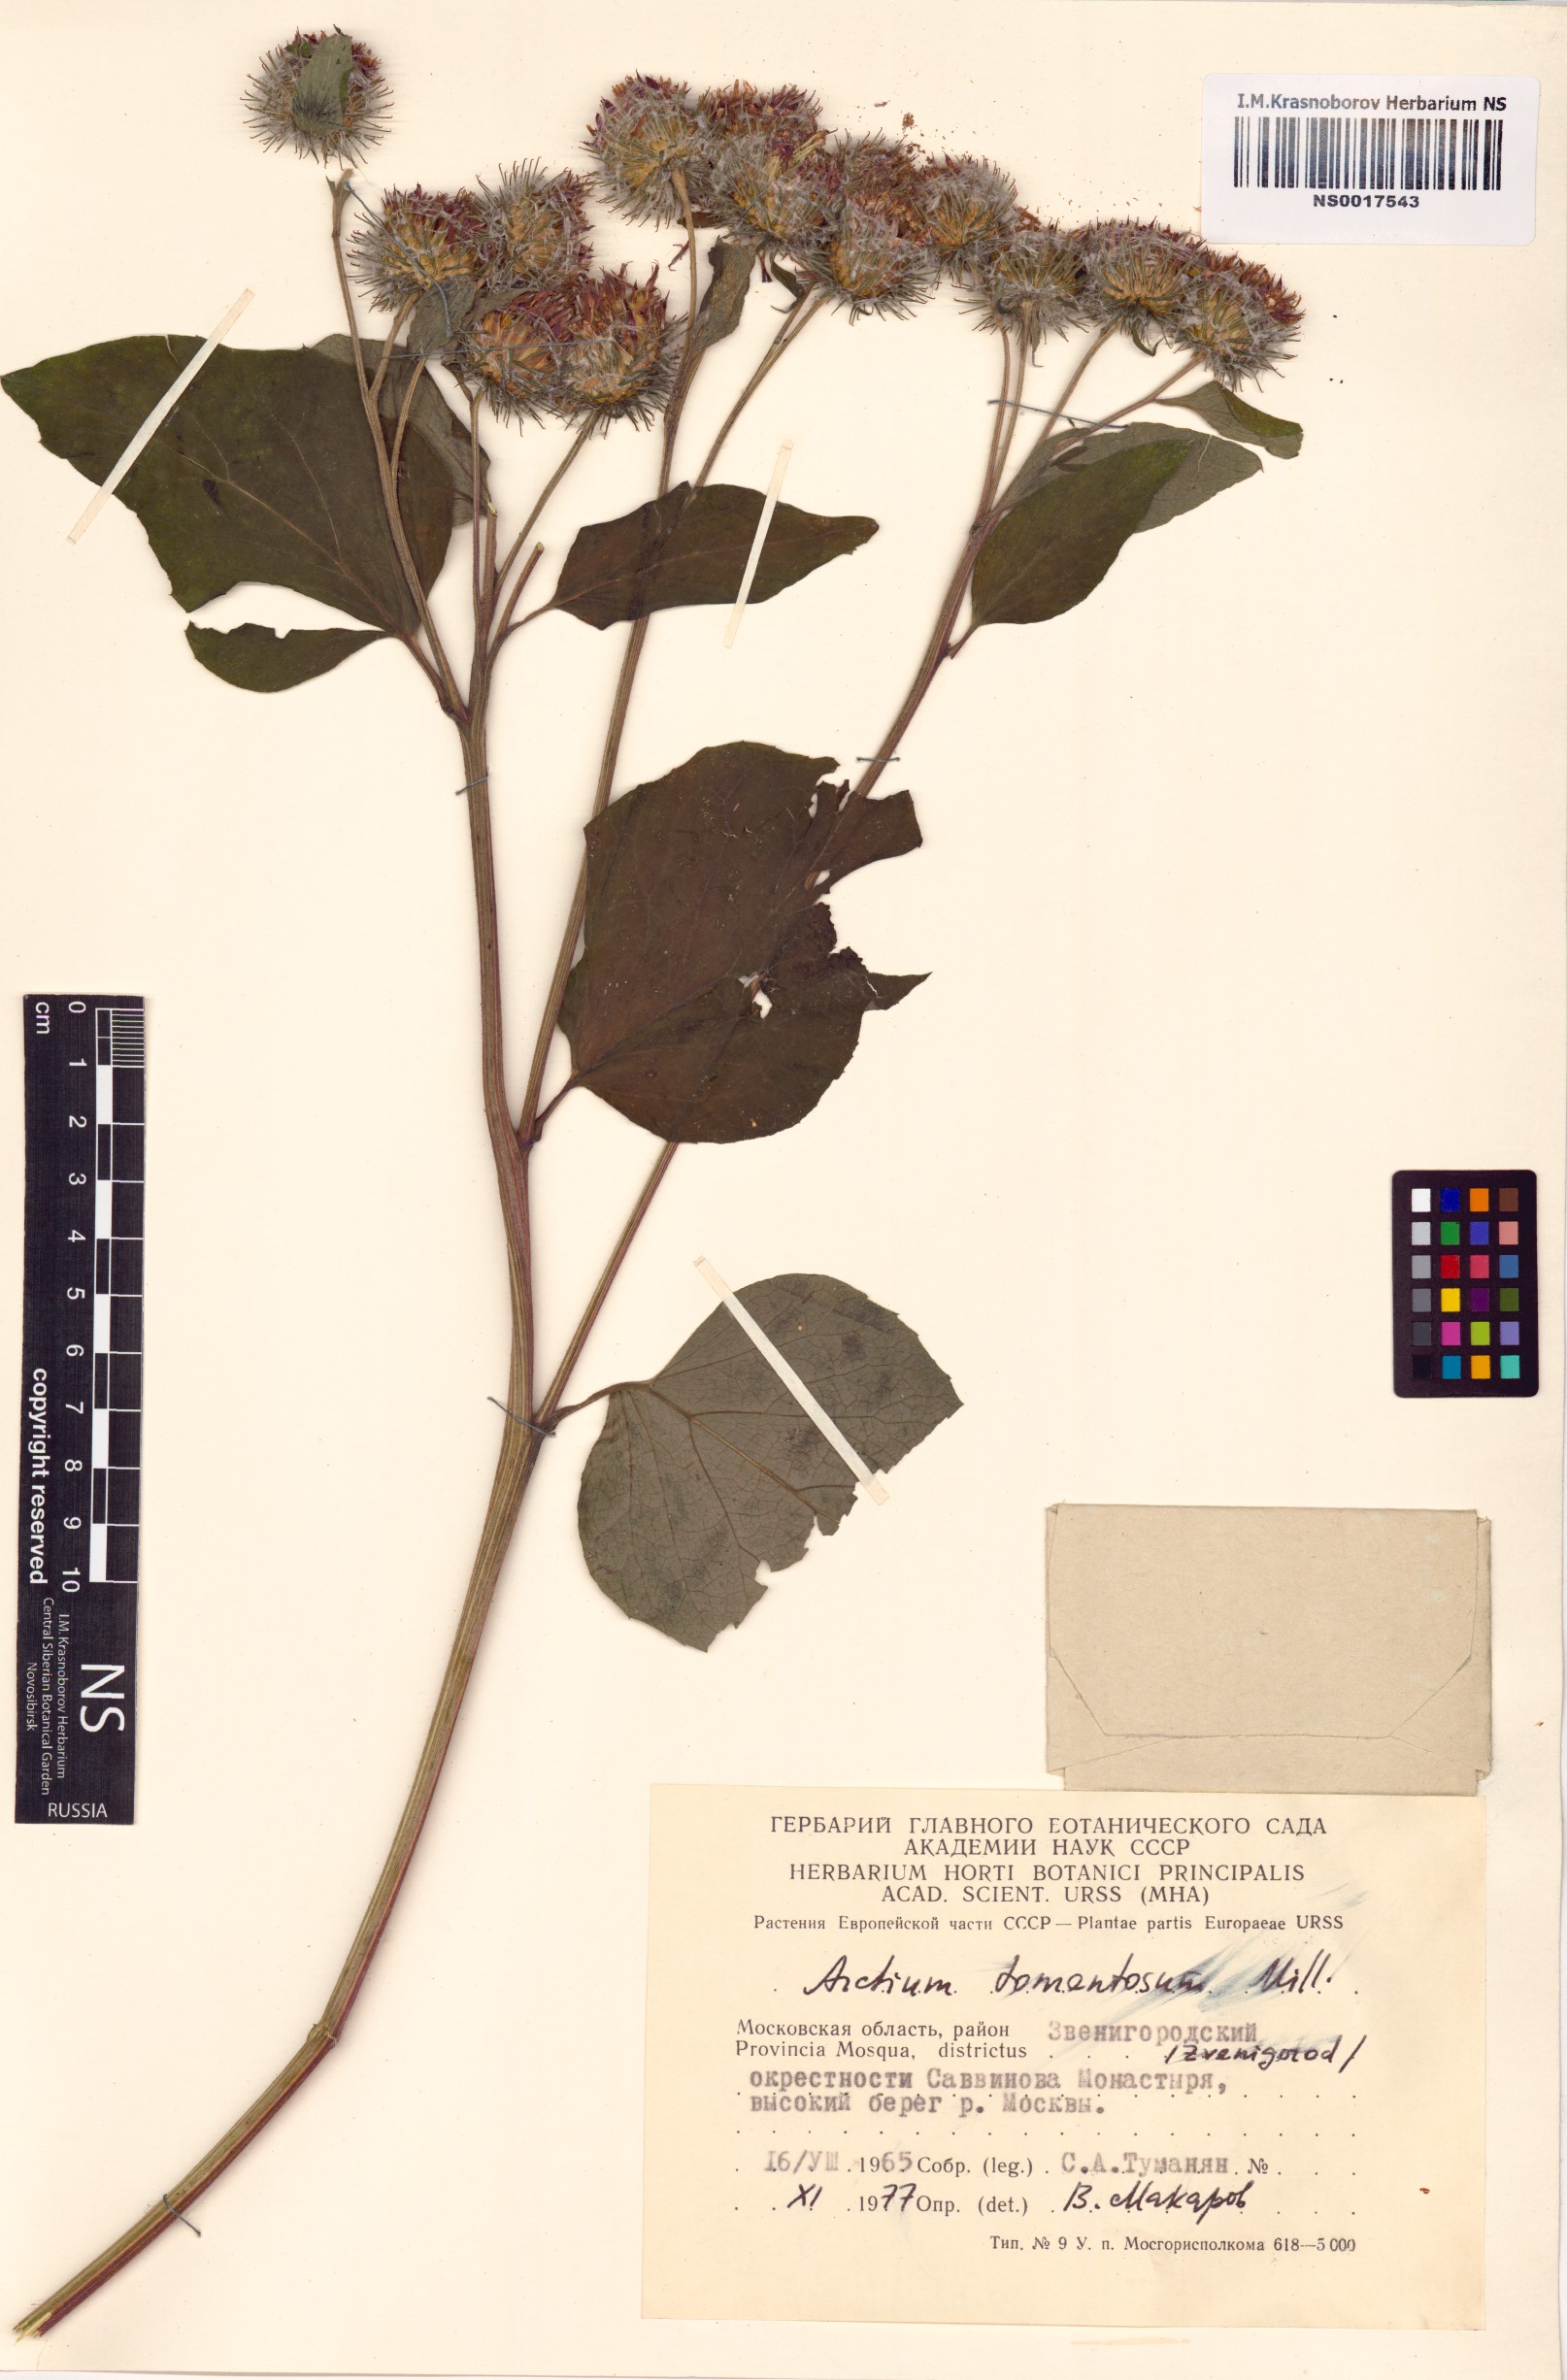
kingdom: Plantae
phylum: Tracheophyta
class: Magnoliopsida
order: Asterales
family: Asteraceae
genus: Arctium
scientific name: Arctium tomentosum
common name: Woolly burdock
